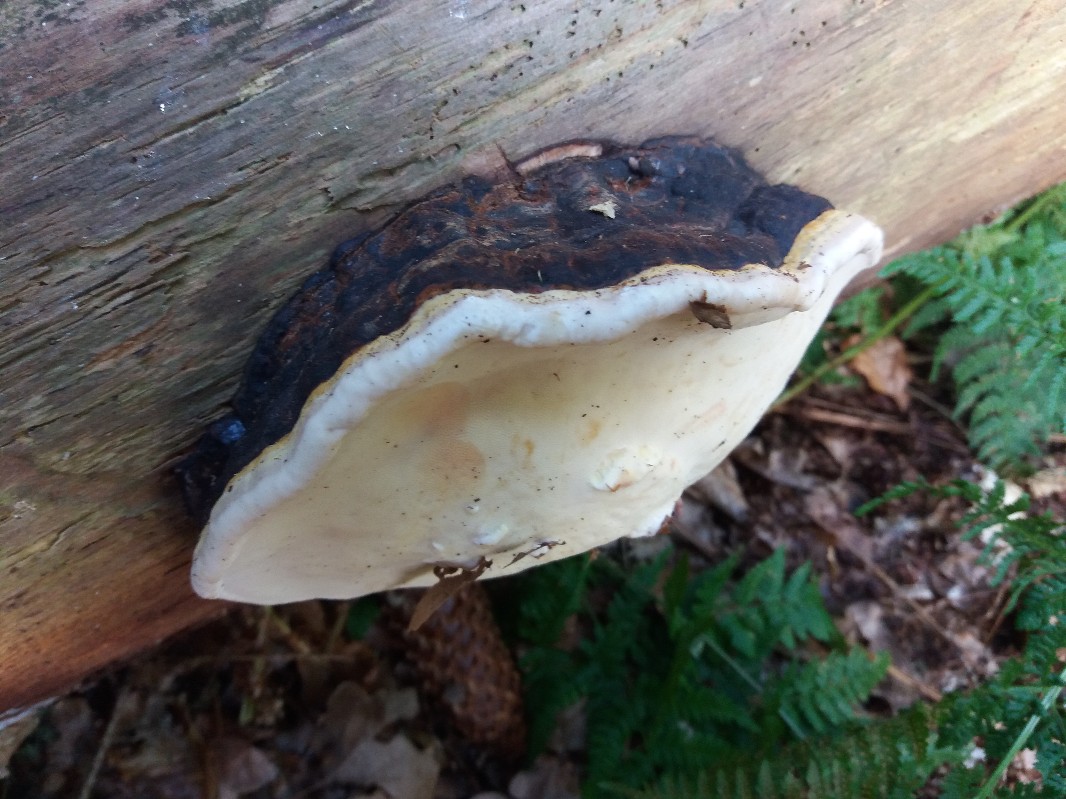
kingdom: Fungi
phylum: Basidiomycota
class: Agaricomycetes
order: Polyporales
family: Fomitopsidaceae
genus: Fomitopsis
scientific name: Fomitopsis pinicola
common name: randbæltet hovporesvamp
